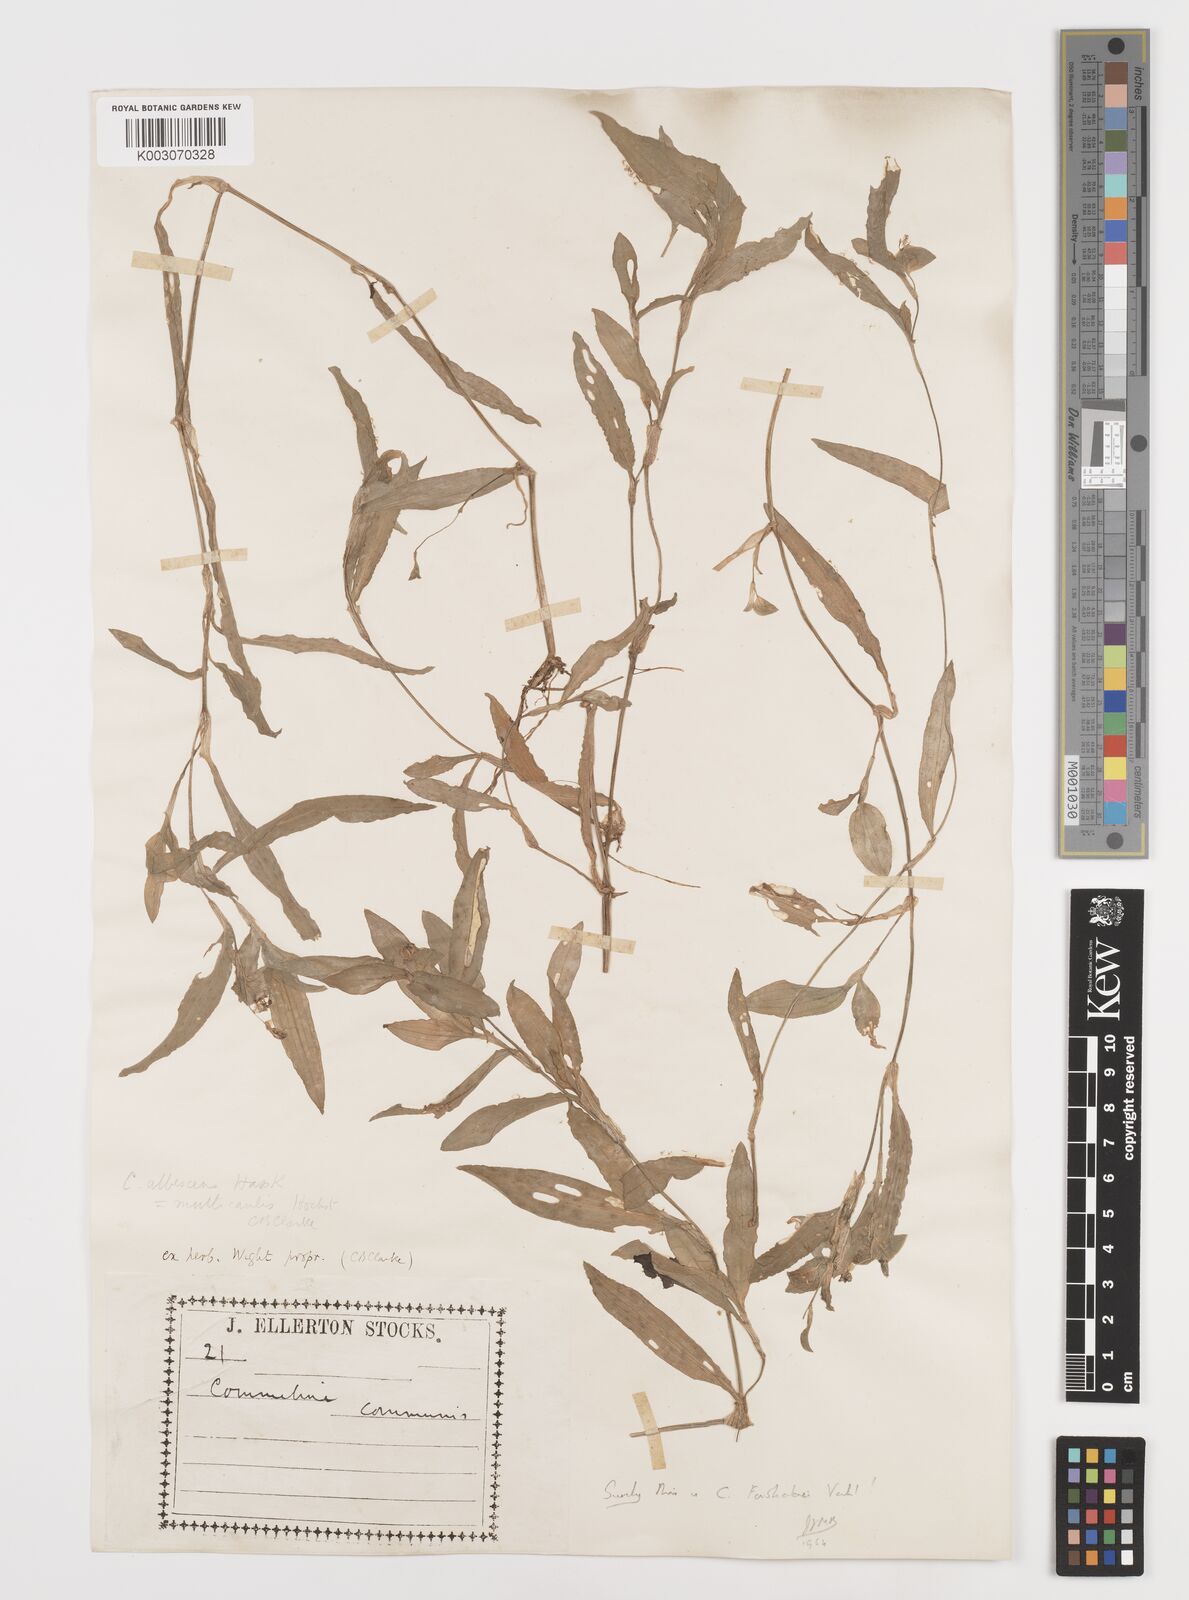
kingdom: Plantae
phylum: Tracheophyta
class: Liliopsida
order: Commelinales
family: Commelinaceae
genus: Commelina
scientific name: Commelina albescens
